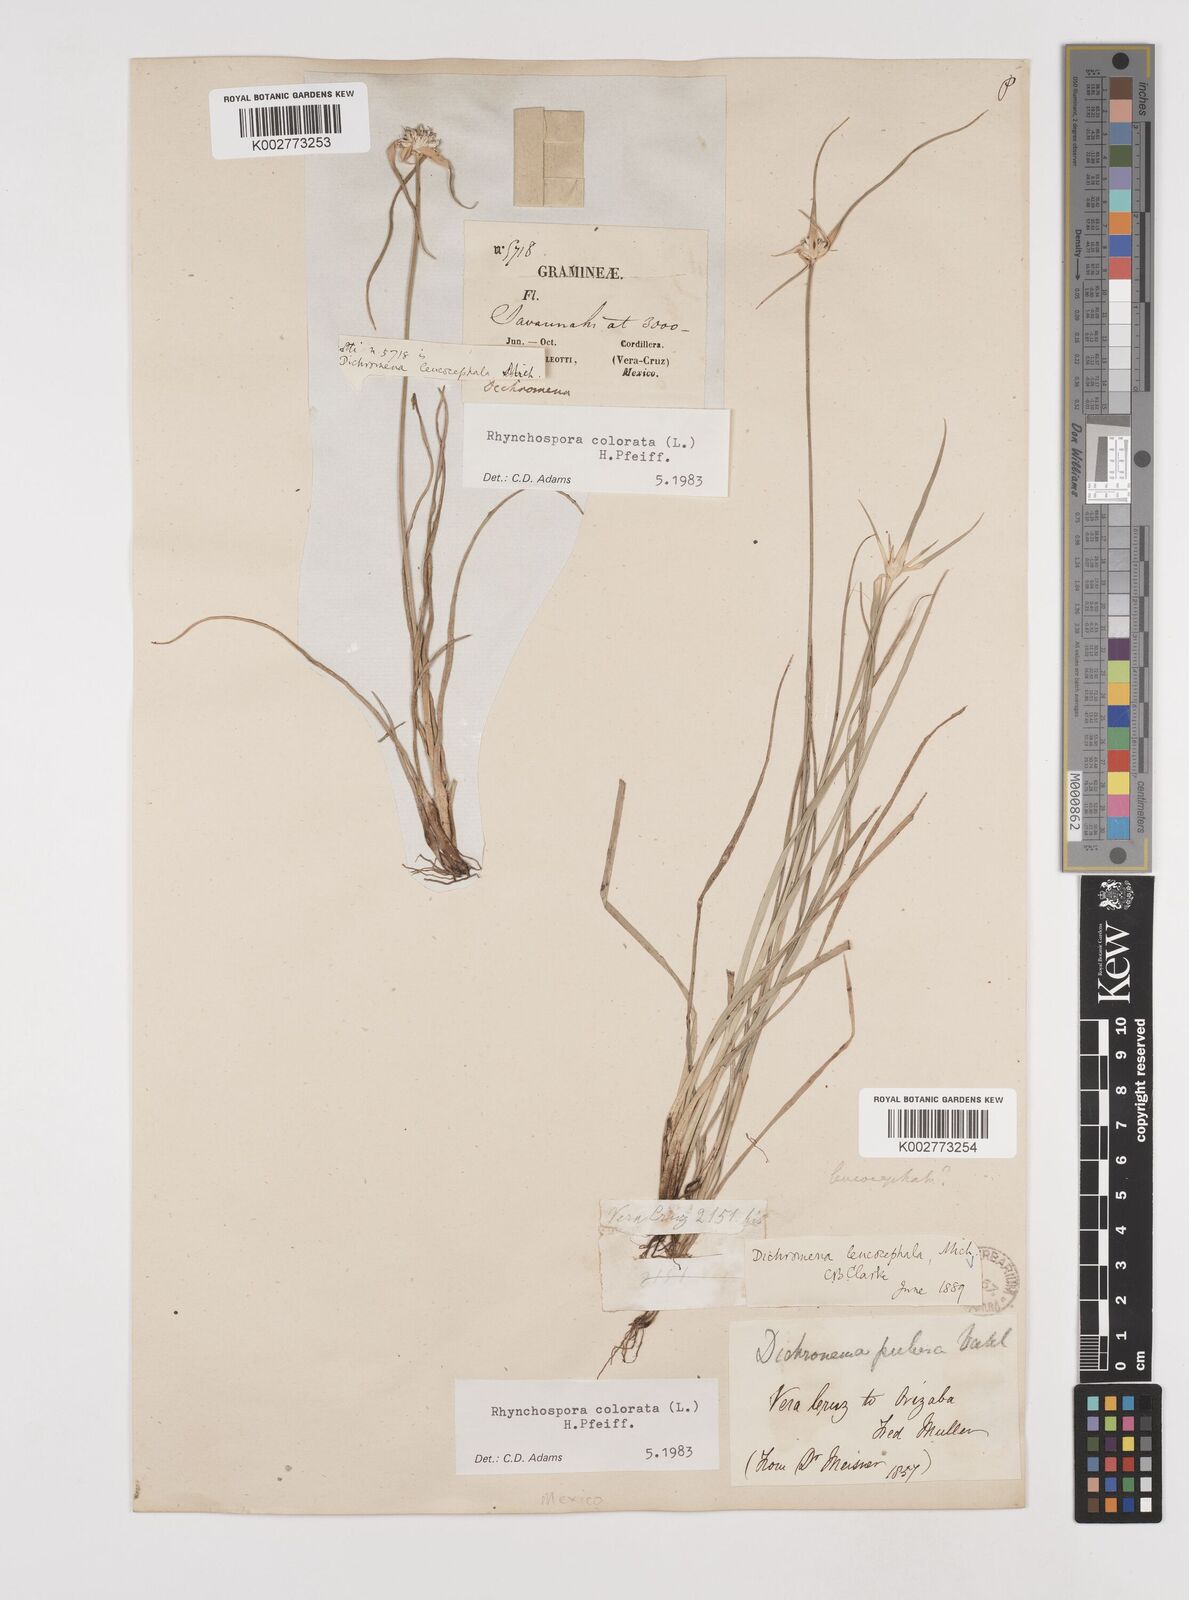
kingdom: Plantae
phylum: Tracheophyta
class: Liliopsida
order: Poales
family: Cyperaceae
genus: Rhynchospora
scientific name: Rhynchospora colorata
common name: Star sedge
